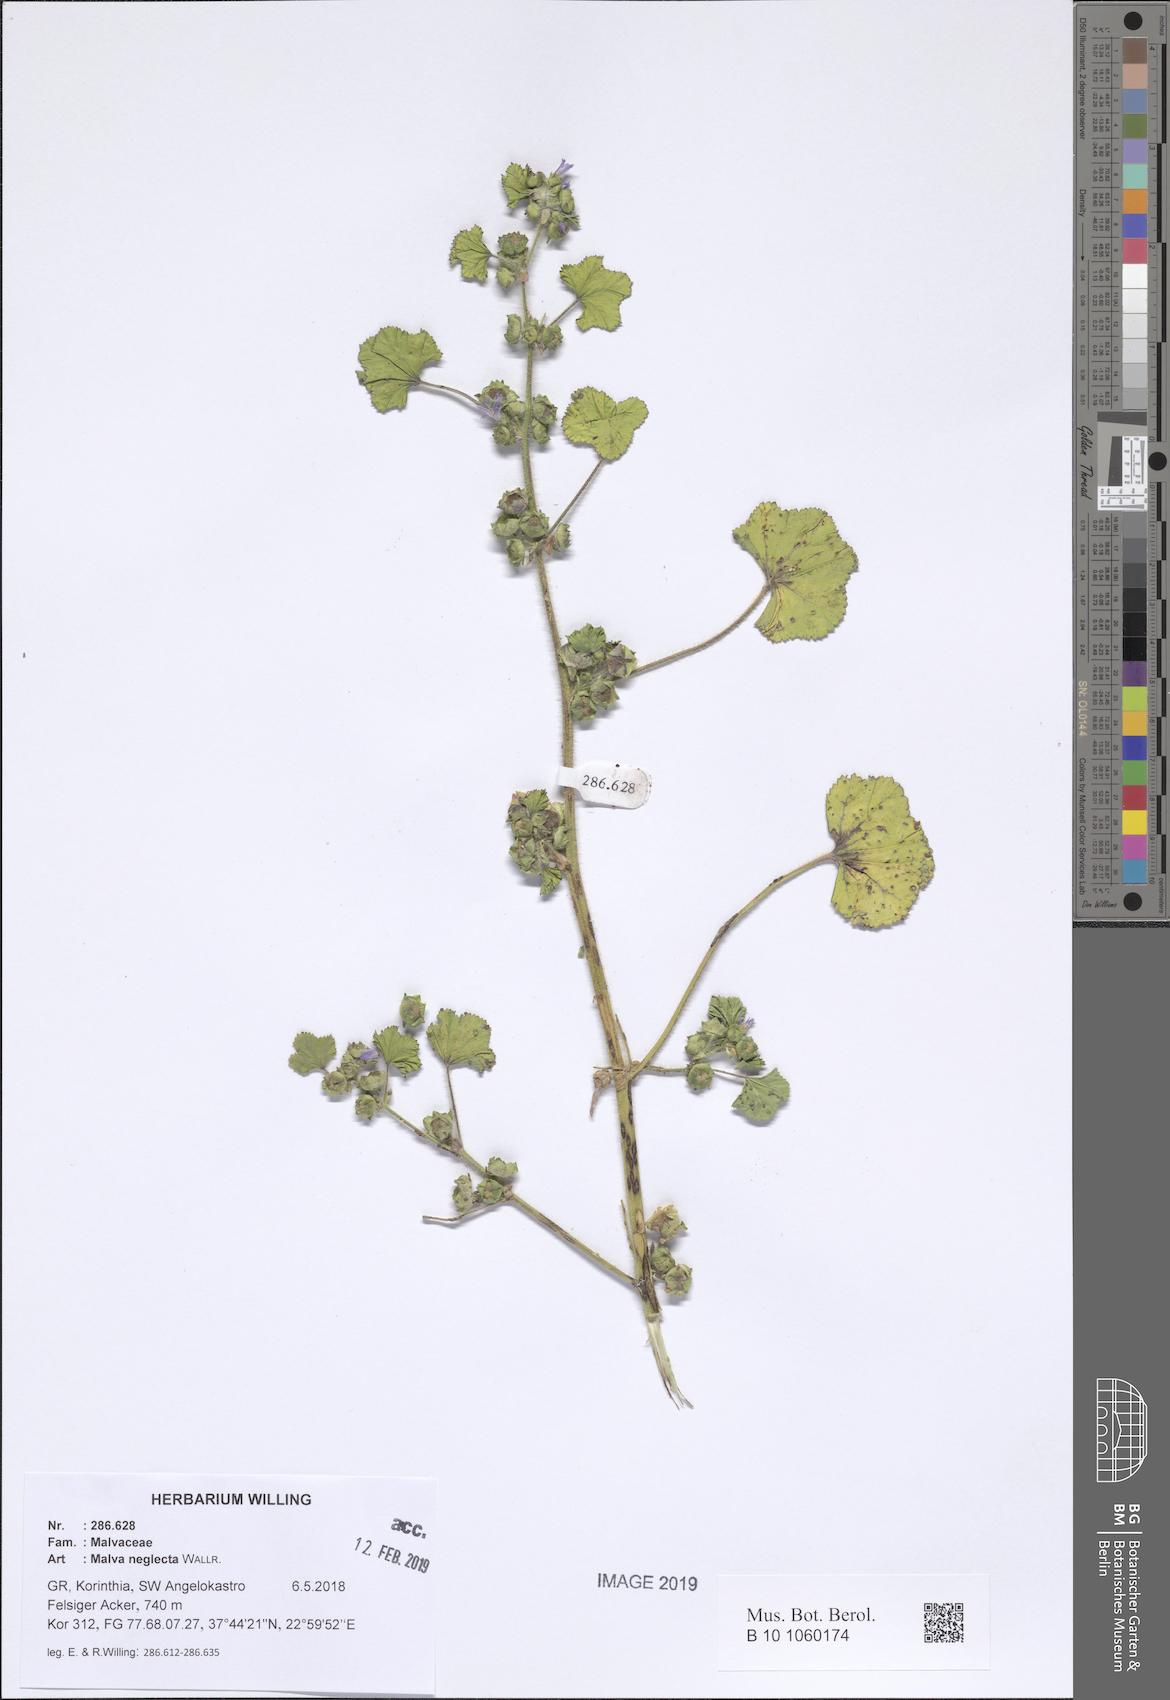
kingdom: Plantae
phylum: Tracheophyta
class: Magnoliopsida
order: Malvales
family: Malvaceae
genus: Malva
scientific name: Malva parviflora
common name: Least mallow
